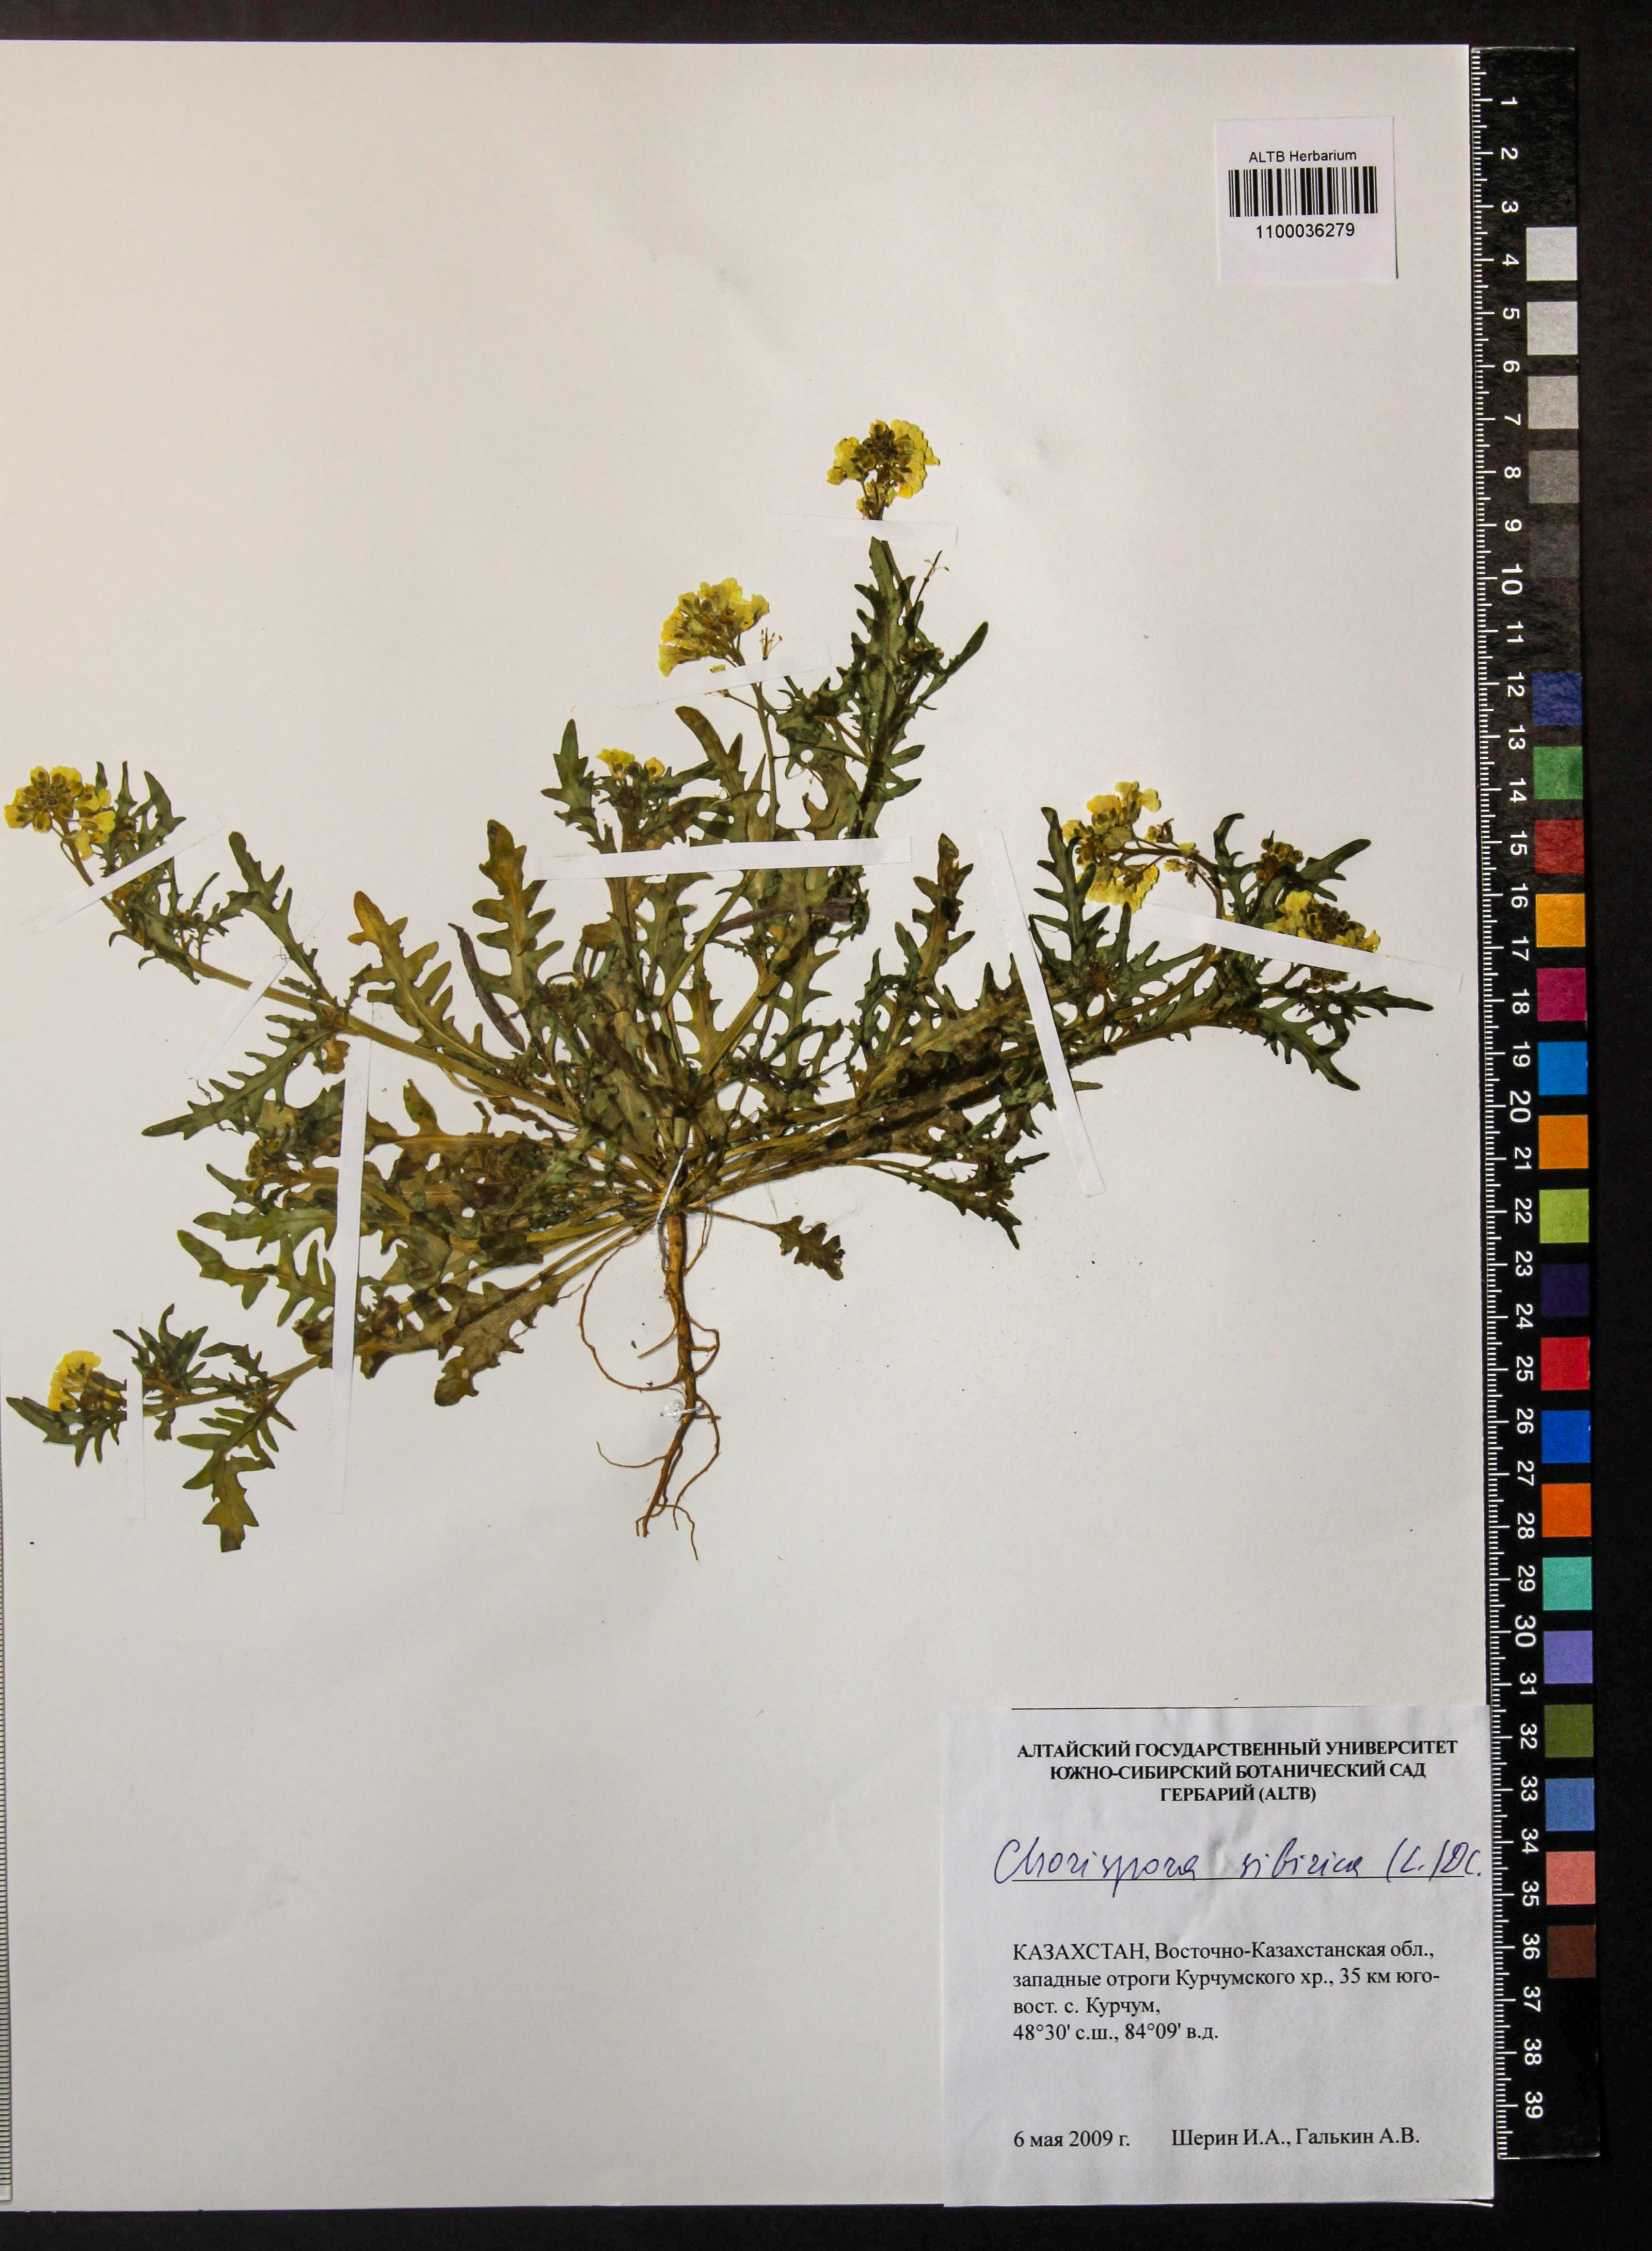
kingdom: Plantae
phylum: Tracheophyta
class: Magnoliopsida
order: Brassicales
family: Brassicaceae
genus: Chorispora
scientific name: Chorispora sibirica
